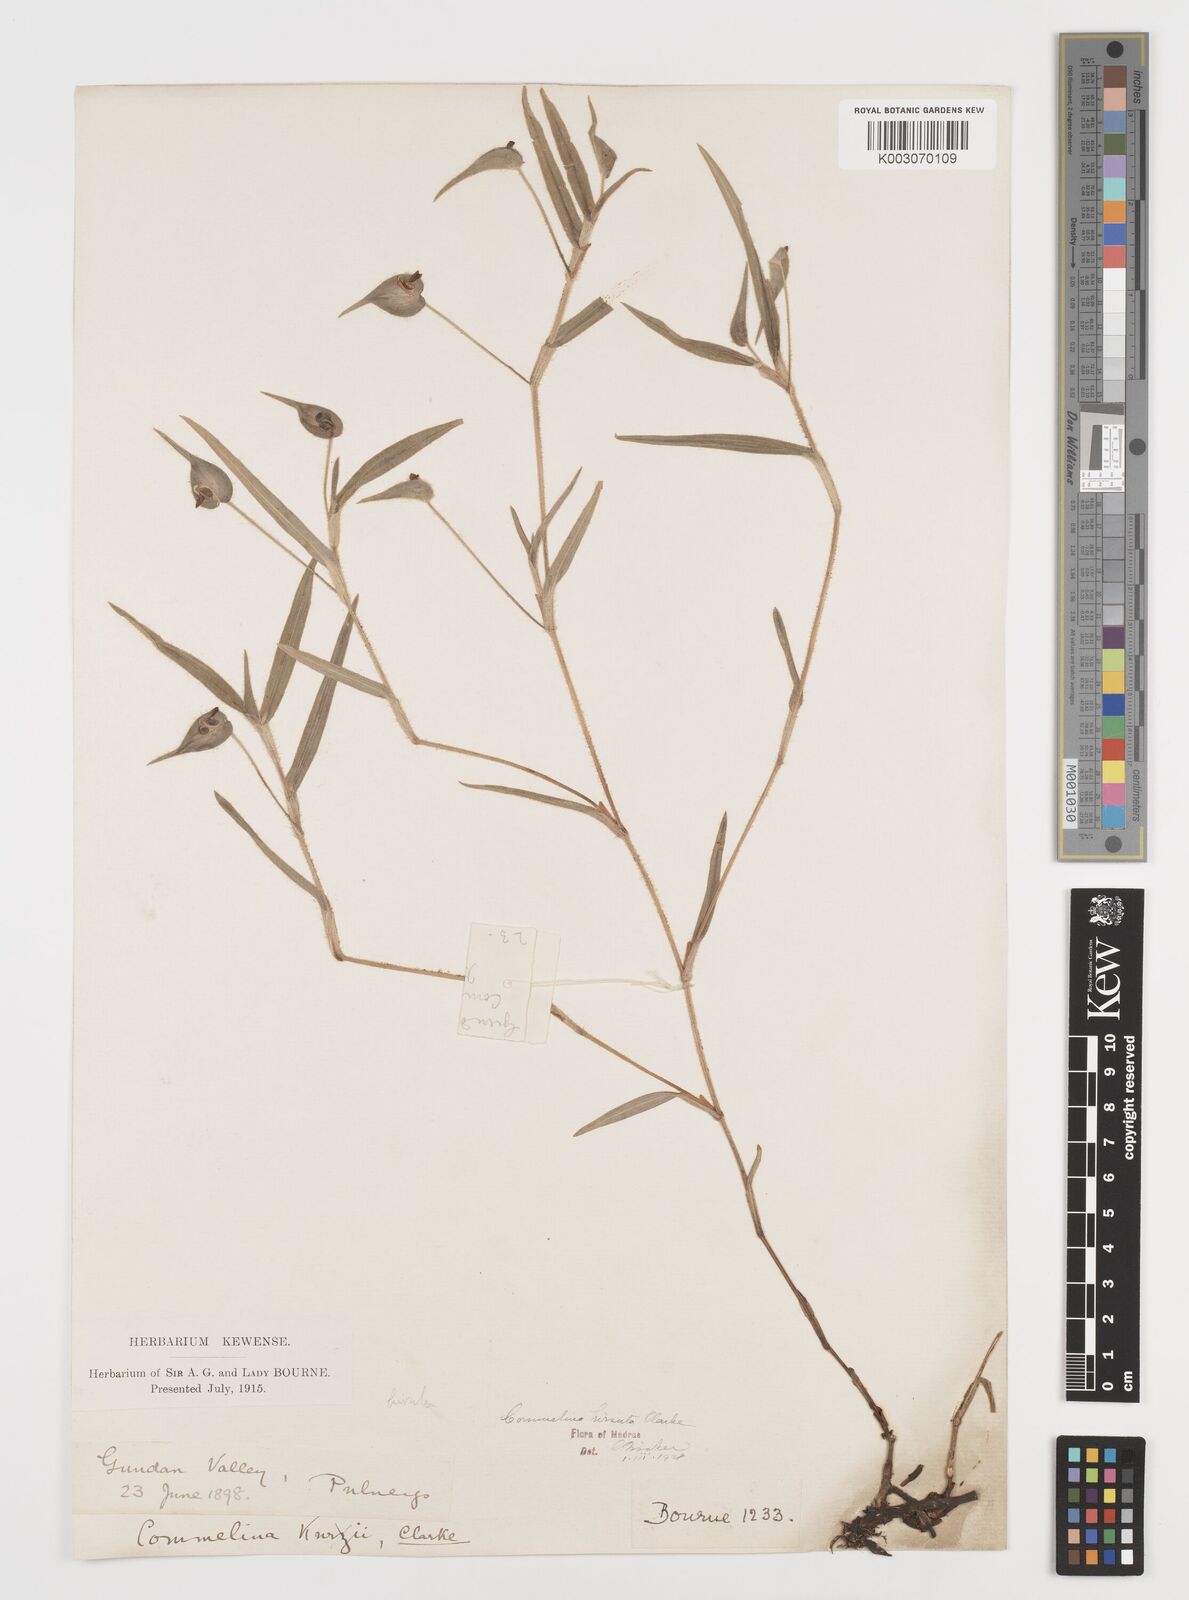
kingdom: Plantae
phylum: Tracheophyta
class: Liliopsida
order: Commelinales
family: Commelinaceae
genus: Commelina
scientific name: Commelina hirsuta
